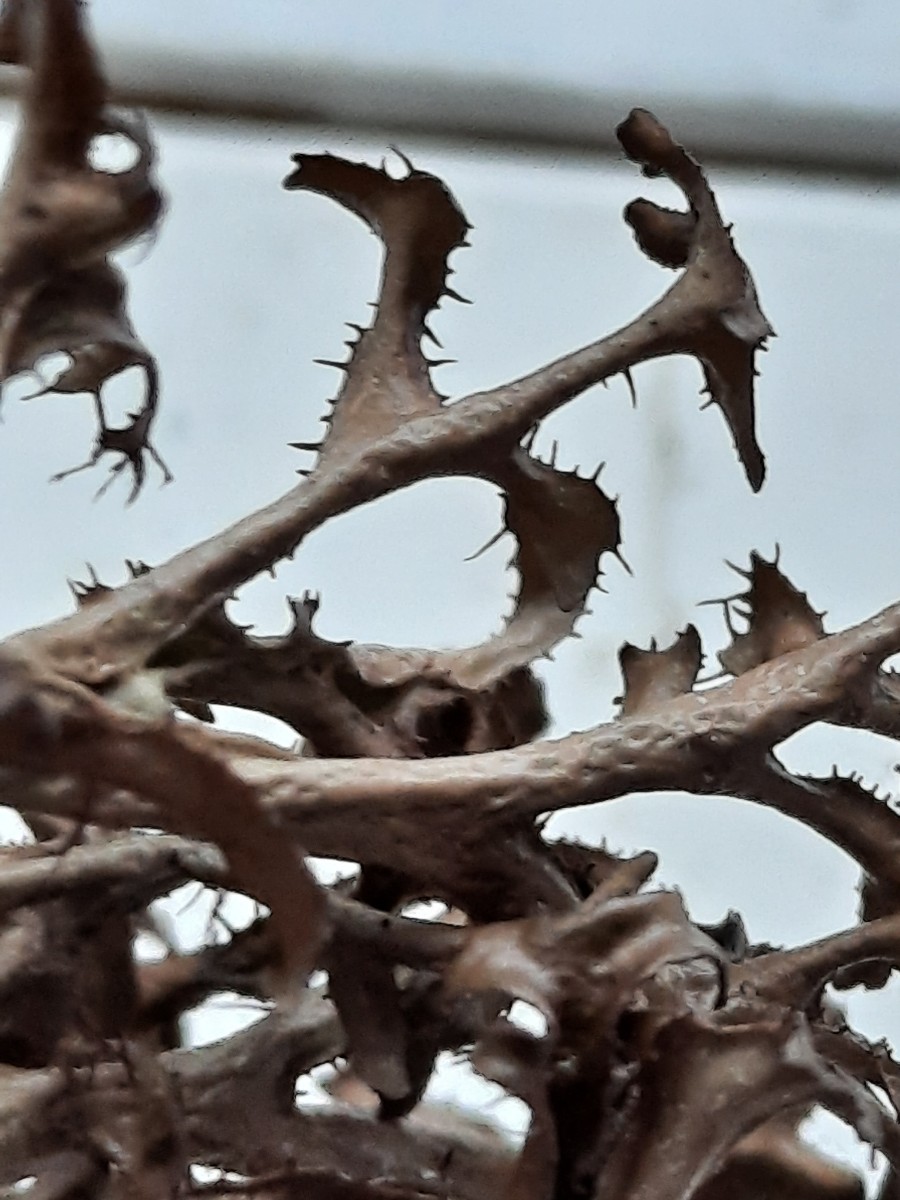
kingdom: Fungi
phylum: Ascomycota
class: Lecanoromycetes
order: Lecanorales
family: Parmeliaceae
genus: Cetraria
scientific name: Cetraria islandica
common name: islandsk kruslav
